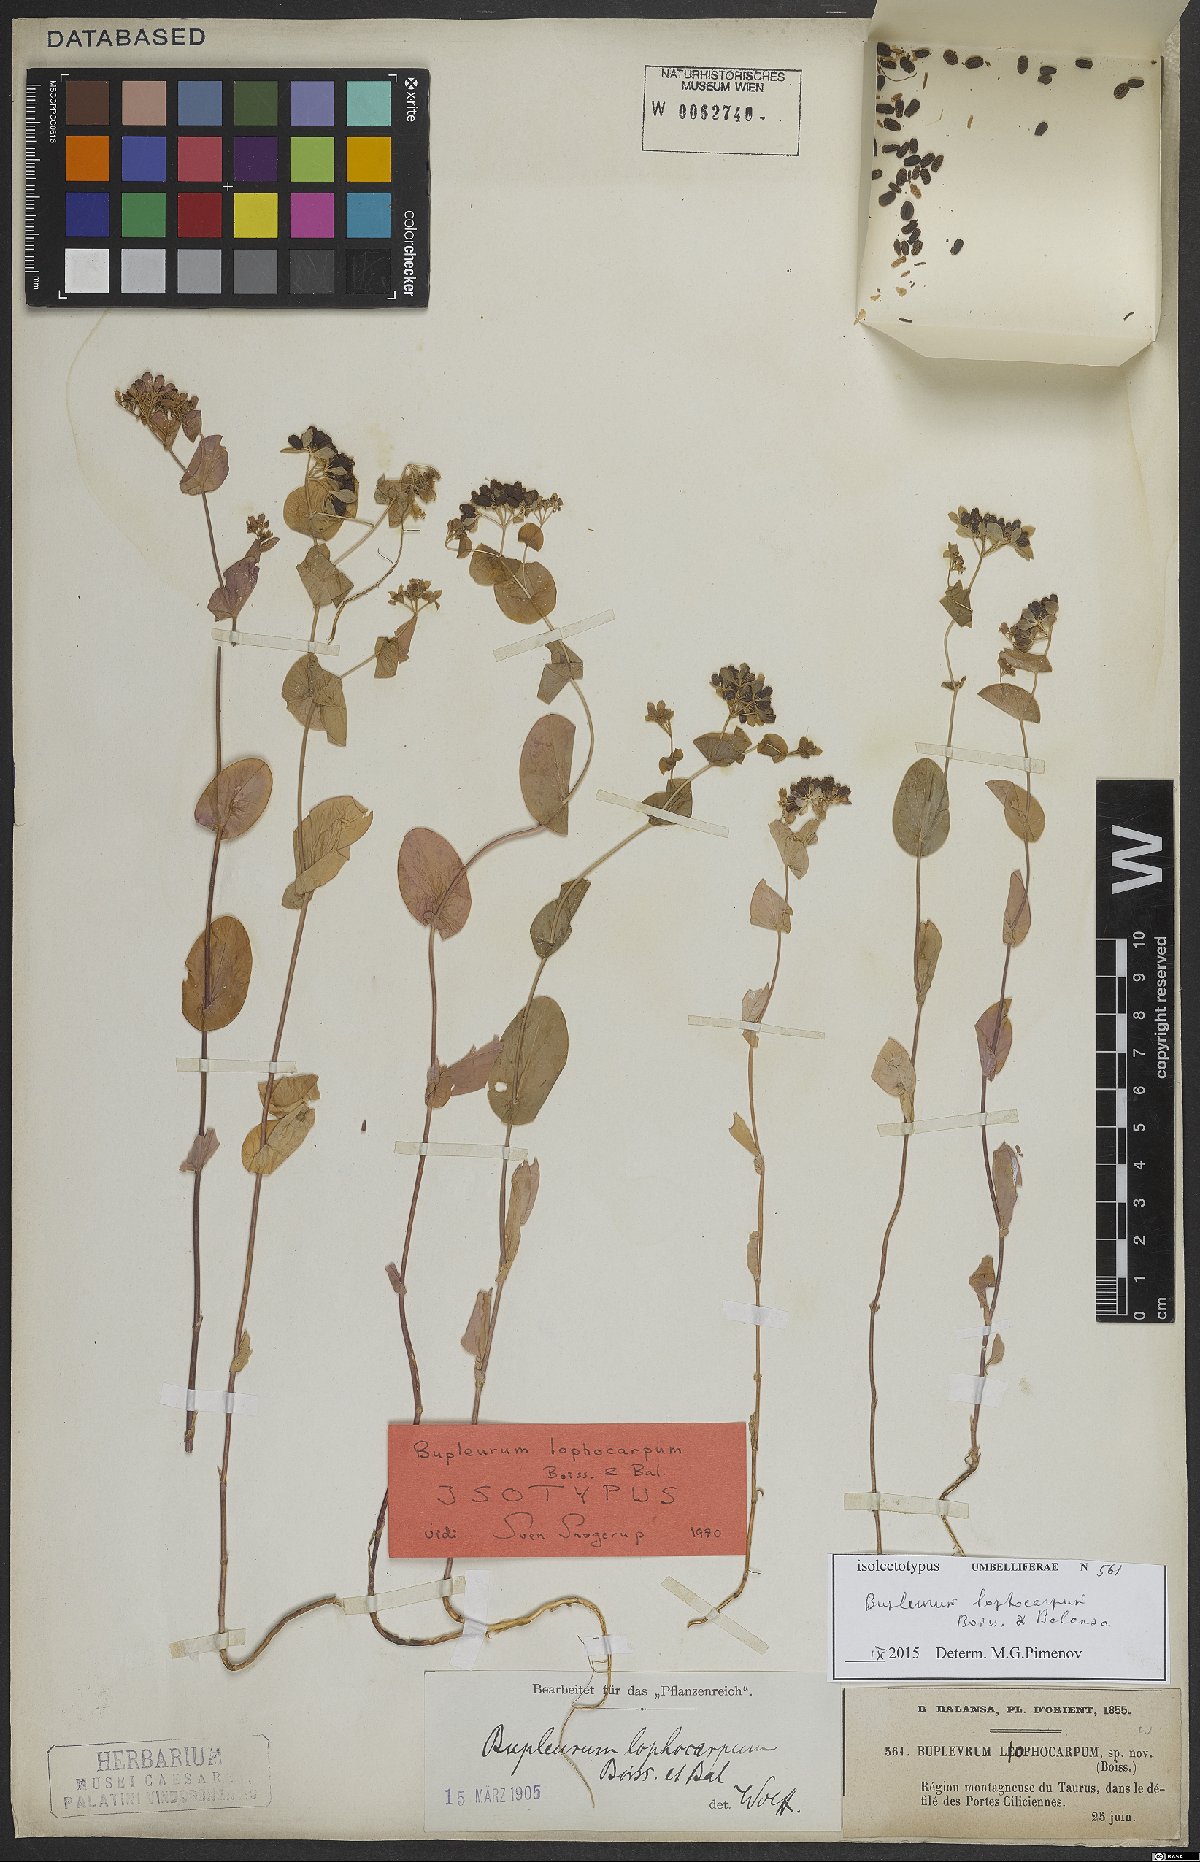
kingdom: Plantae
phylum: Tracheophyta
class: Magnoliopsida
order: Apiales
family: Apiaceae
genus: Bupleurum
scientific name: Bupleurum lophocarpum
